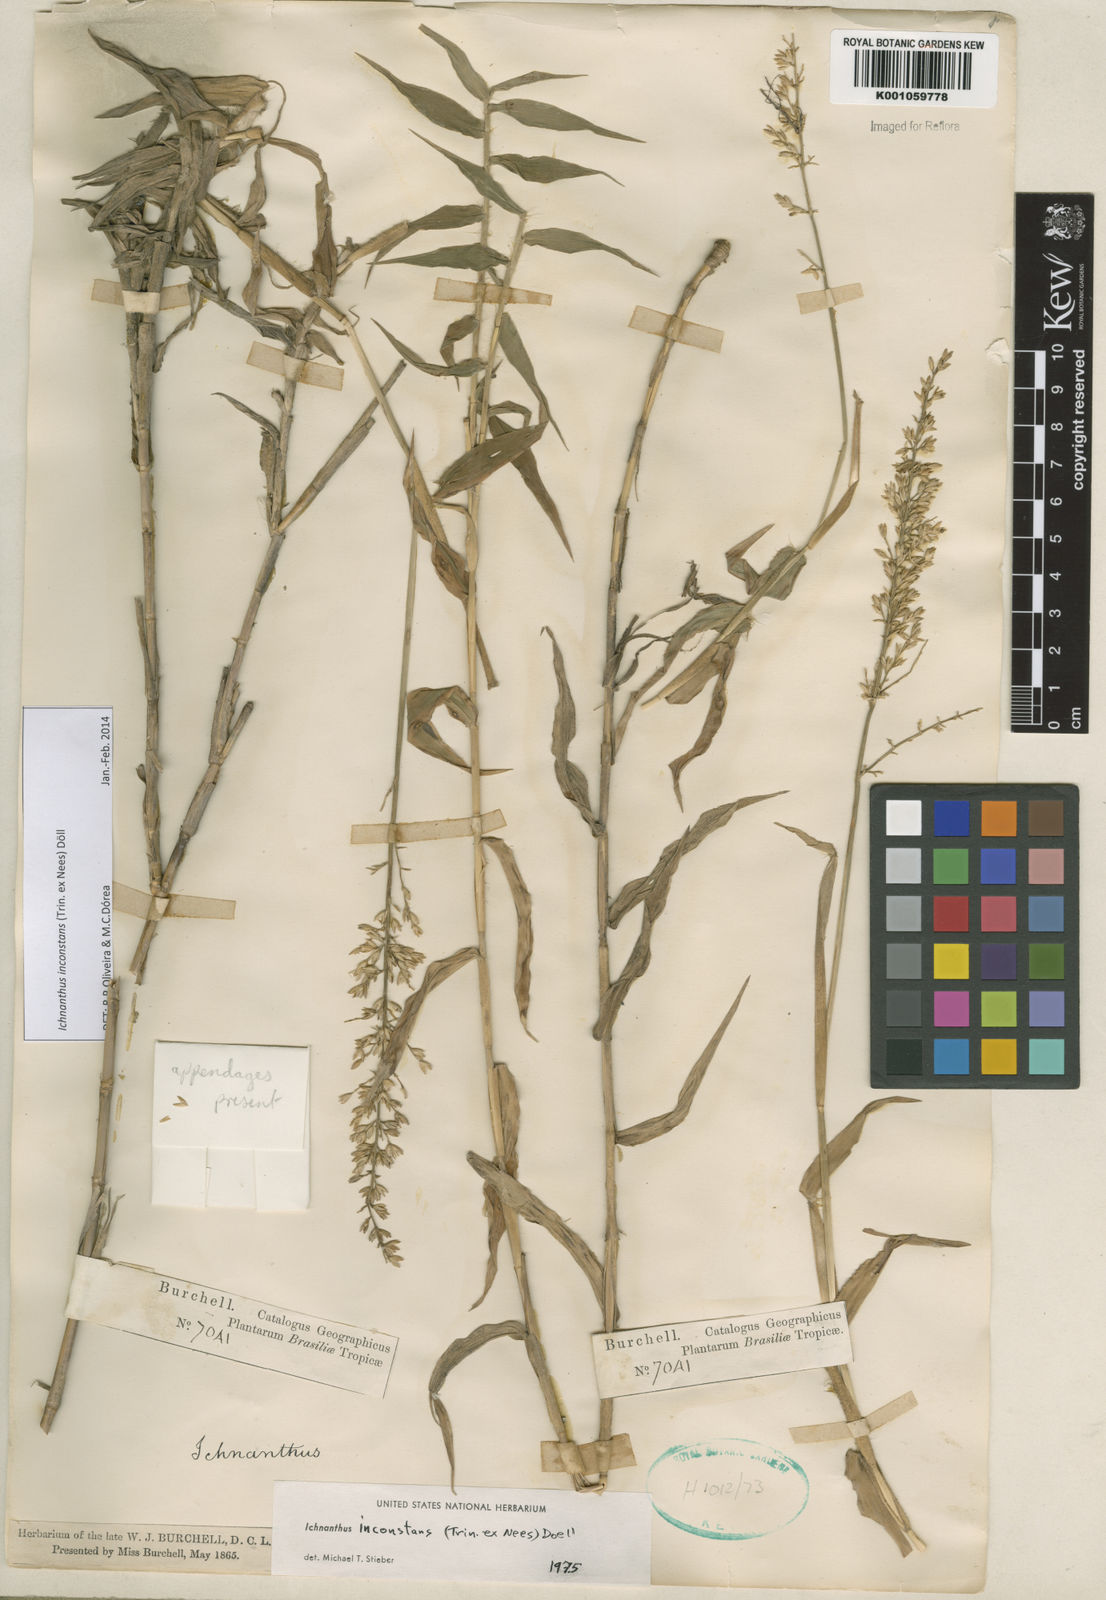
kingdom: Plantae
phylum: Tracheophyta
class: Liliopsida
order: Poales
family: Poaceae
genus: Ichnanthus
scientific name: Ichnanthus
